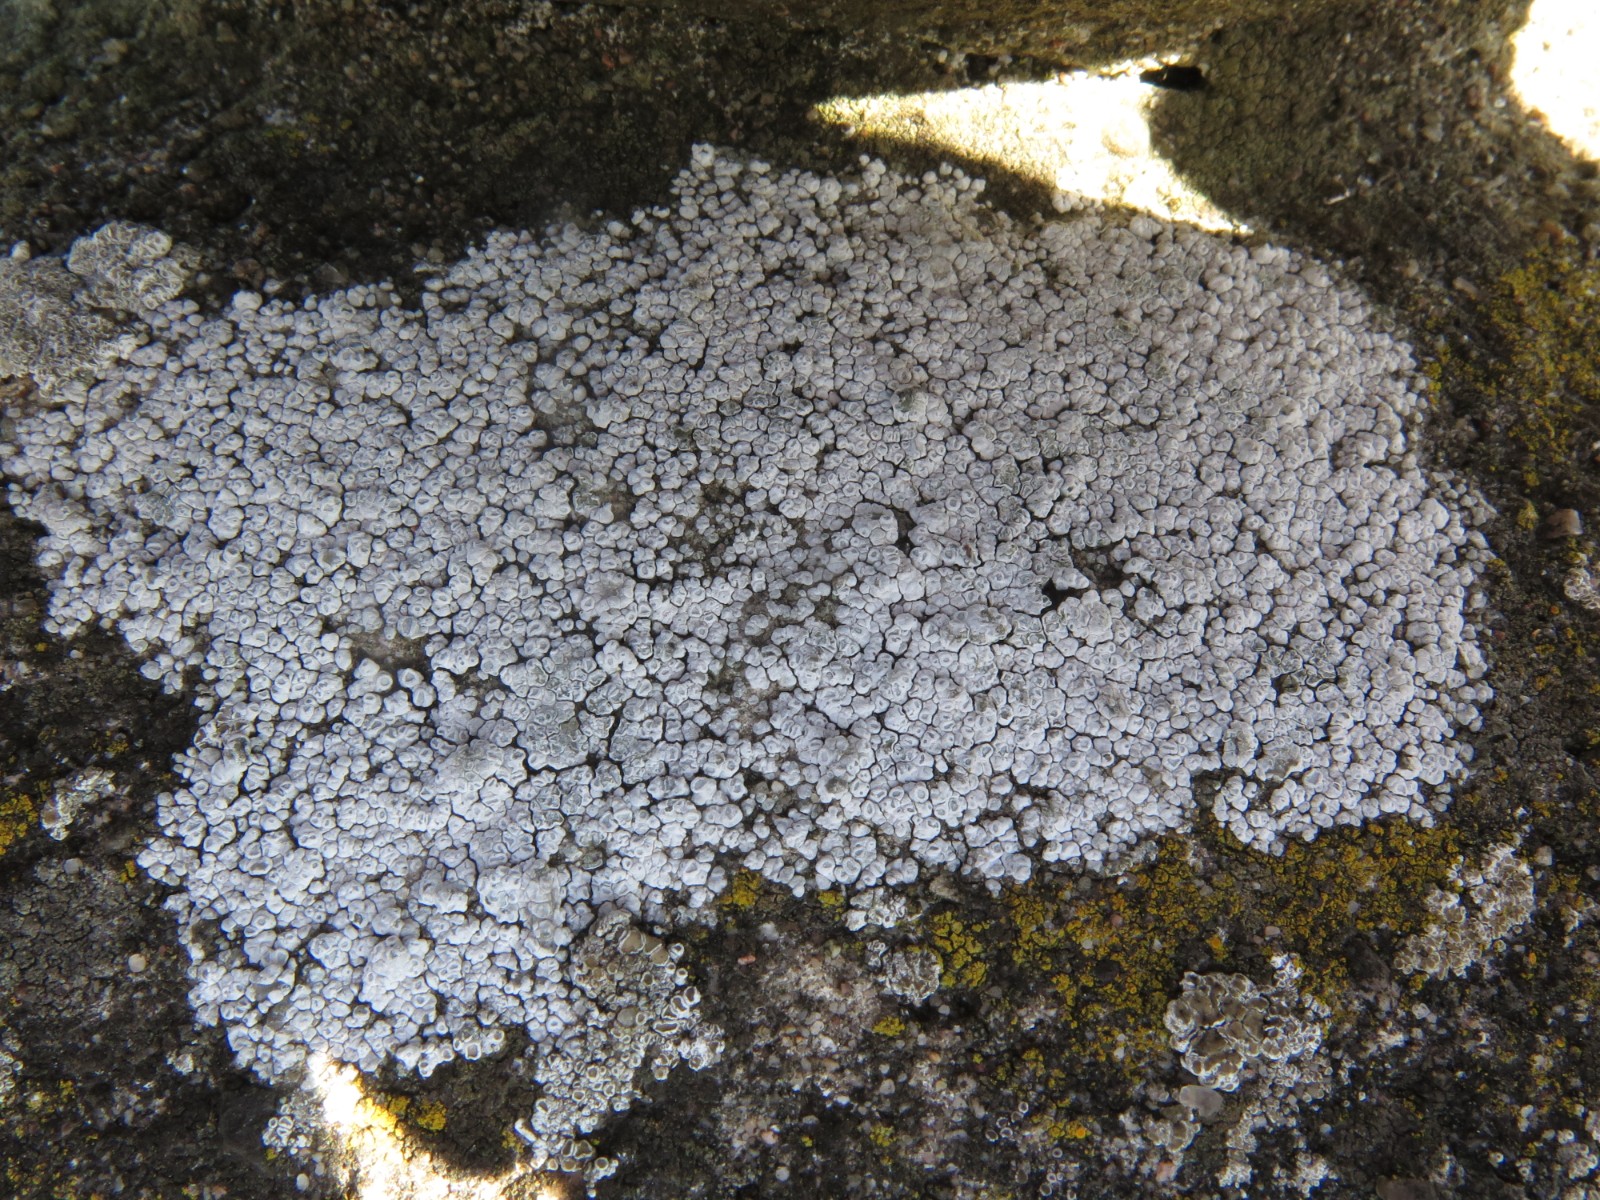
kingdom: Fungi
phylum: Ascomycota
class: Lecanoromycetes
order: Pertusariales
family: Megasporaceae
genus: Circinaria
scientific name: Circinaria contorta
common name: indviklet hulskivelav
